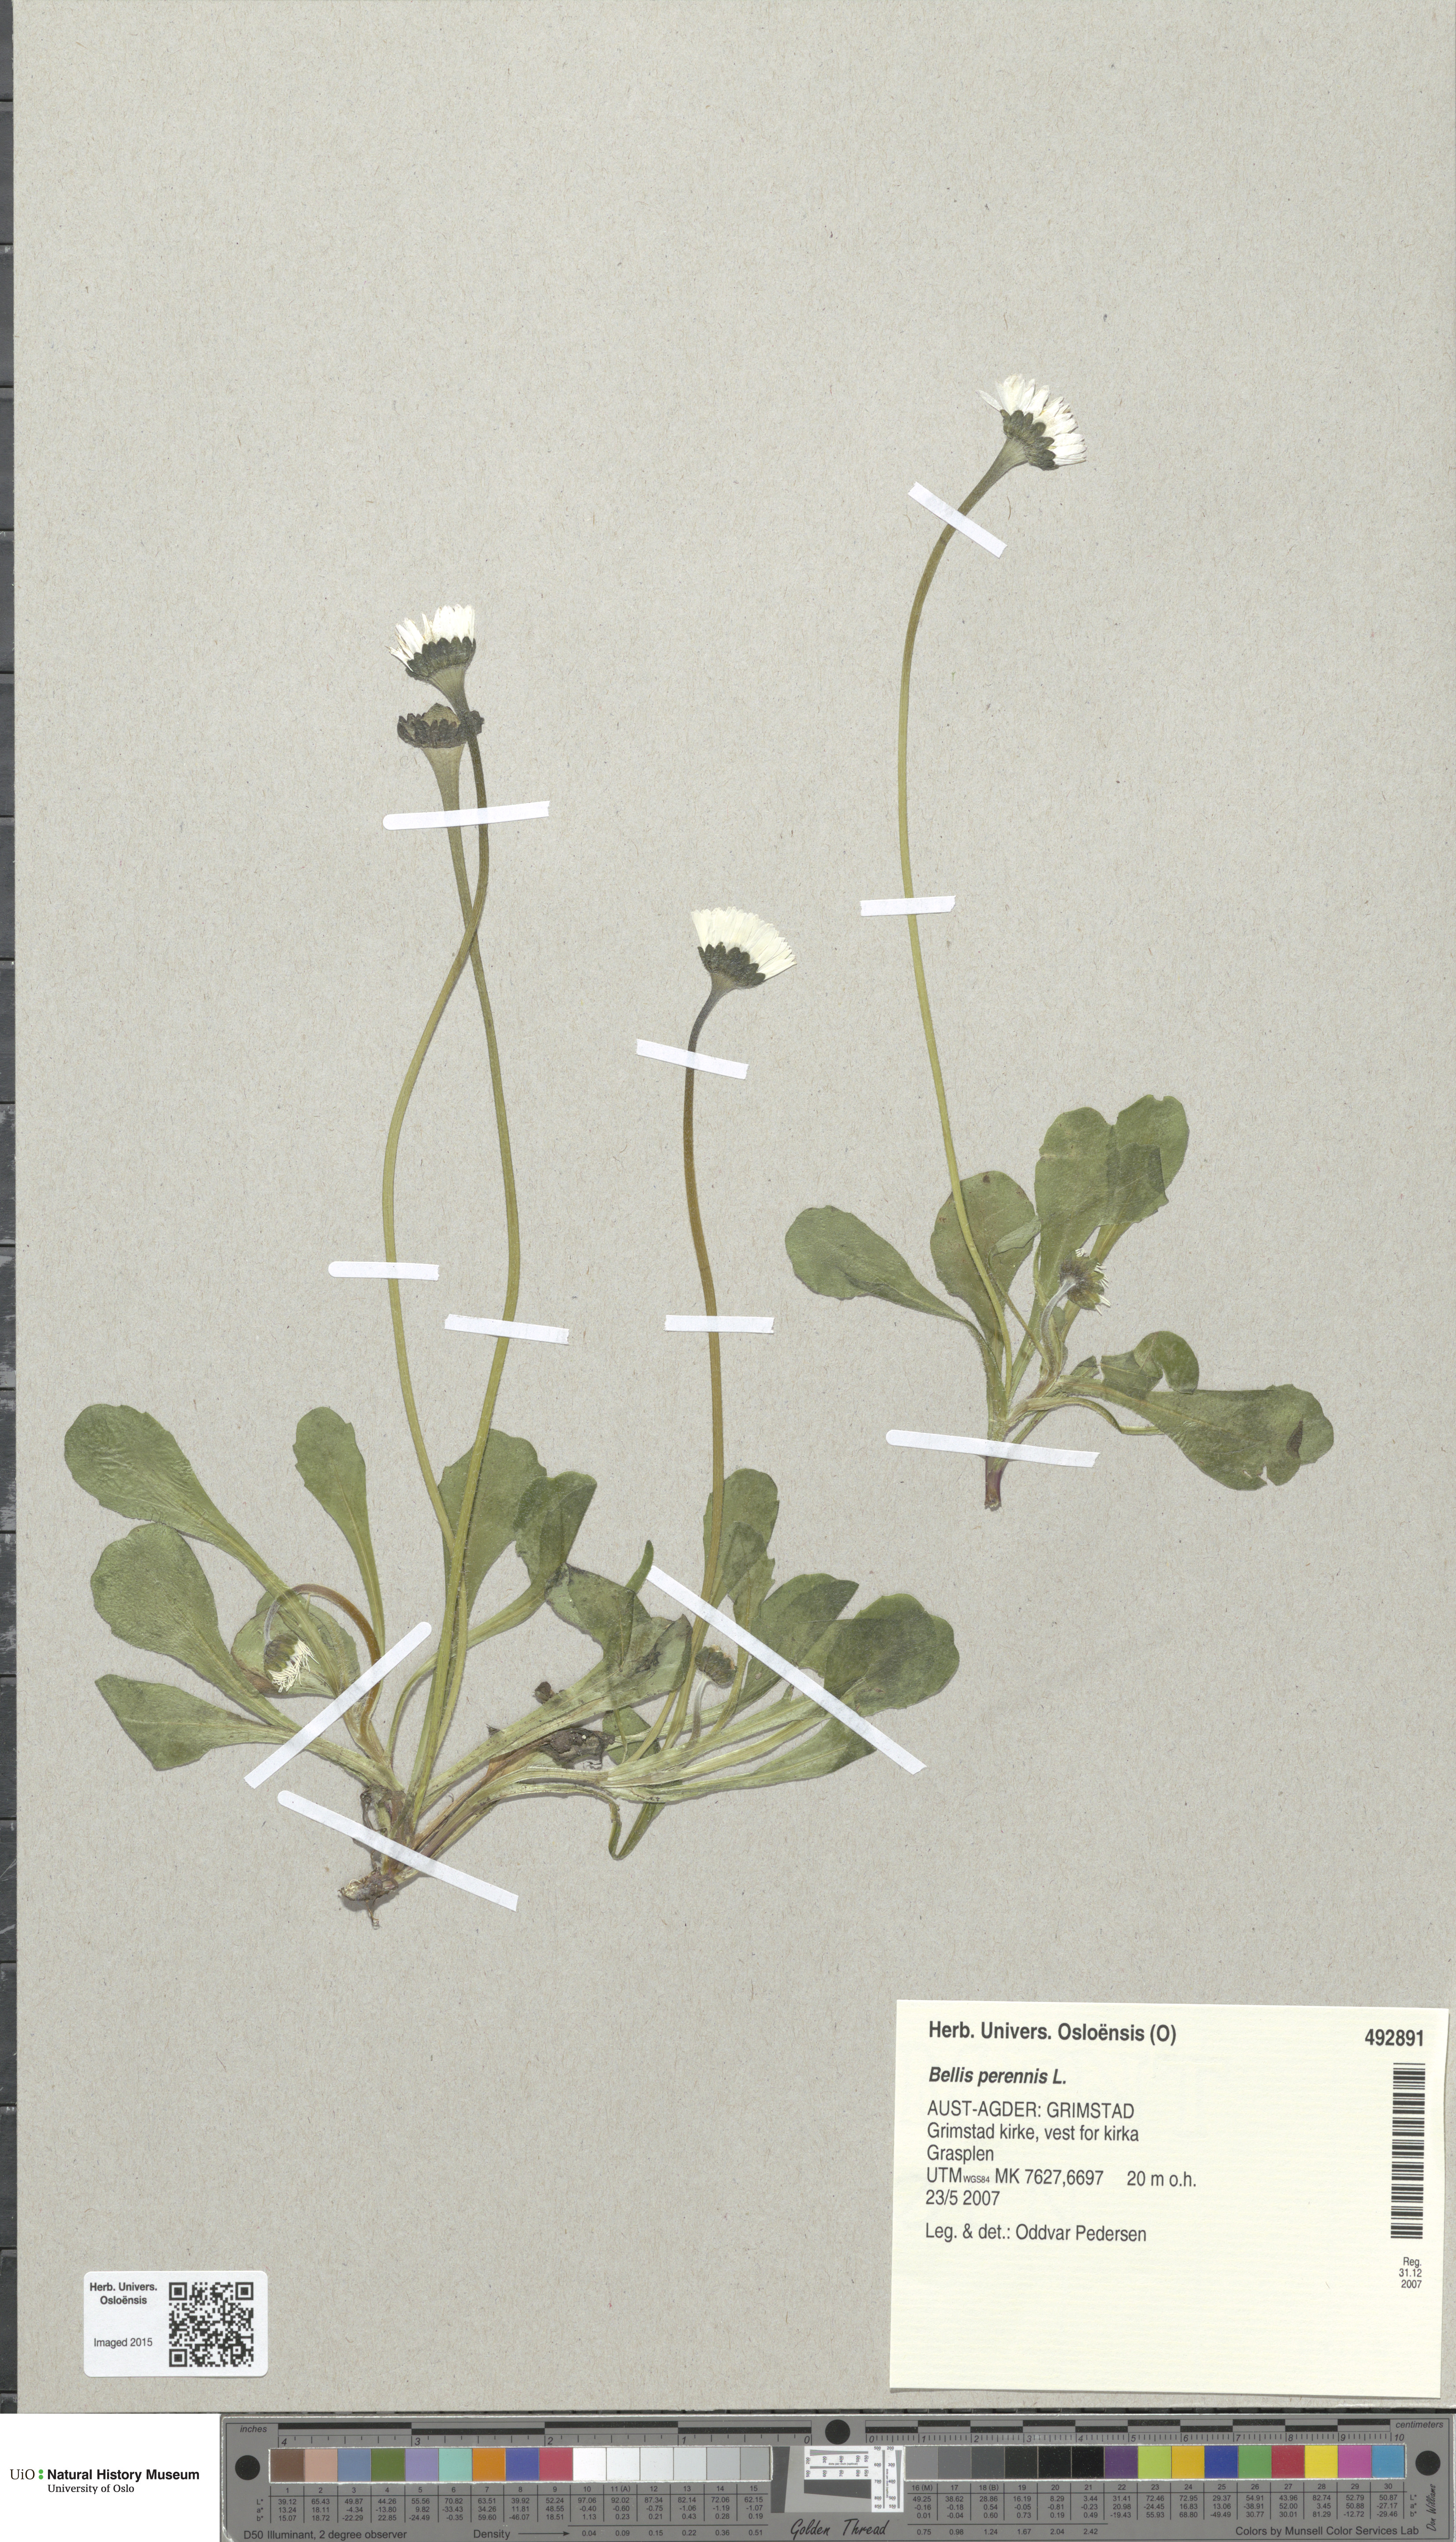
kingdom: Plantae
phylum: Tracheophyta
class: Magnoliopsida
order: Asterales
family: Asteraceae
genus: Bellis
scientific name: Bellis perennis
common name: Lawndaisy
